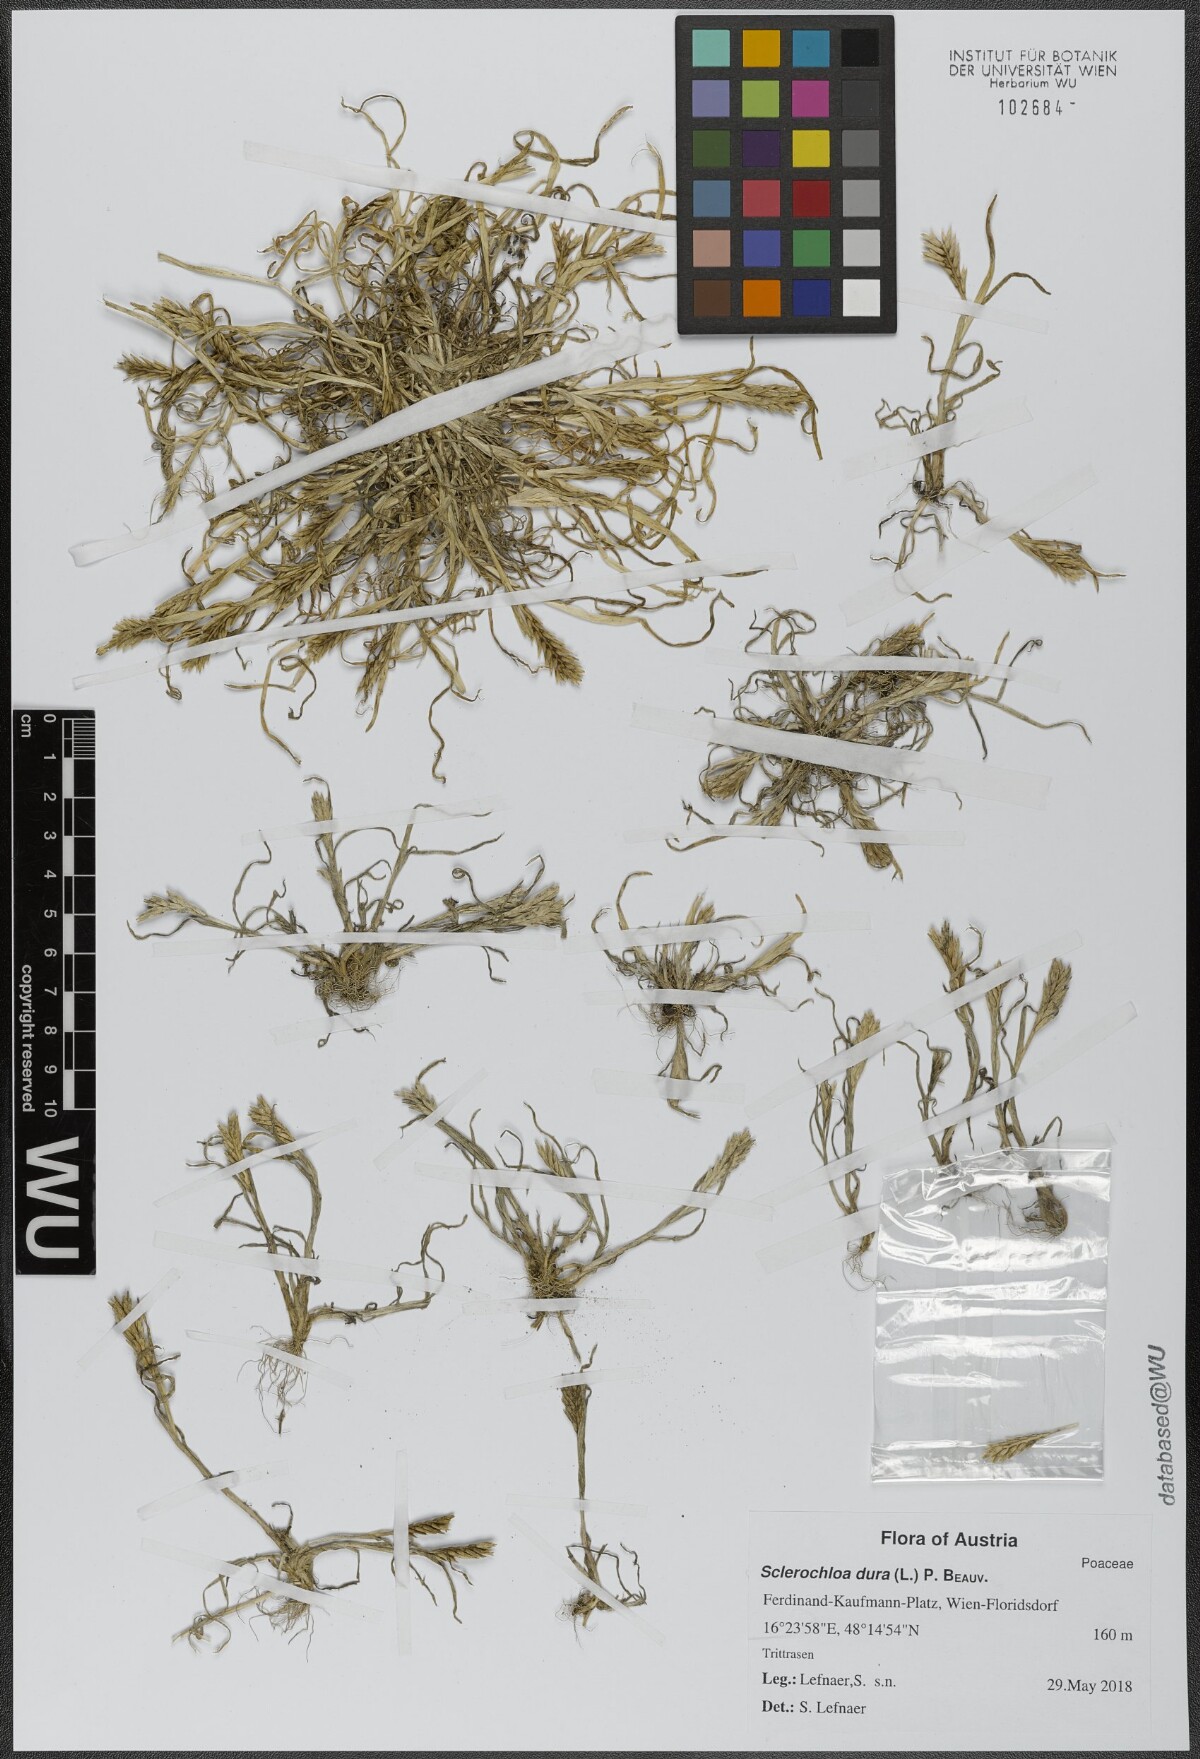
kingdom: Plantae
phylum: Tracheophyta
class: Liliopsida
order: Poales
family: Poaceae
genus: Sclerochloa
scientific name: Sclerochloa dura
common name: Common hardgrass
